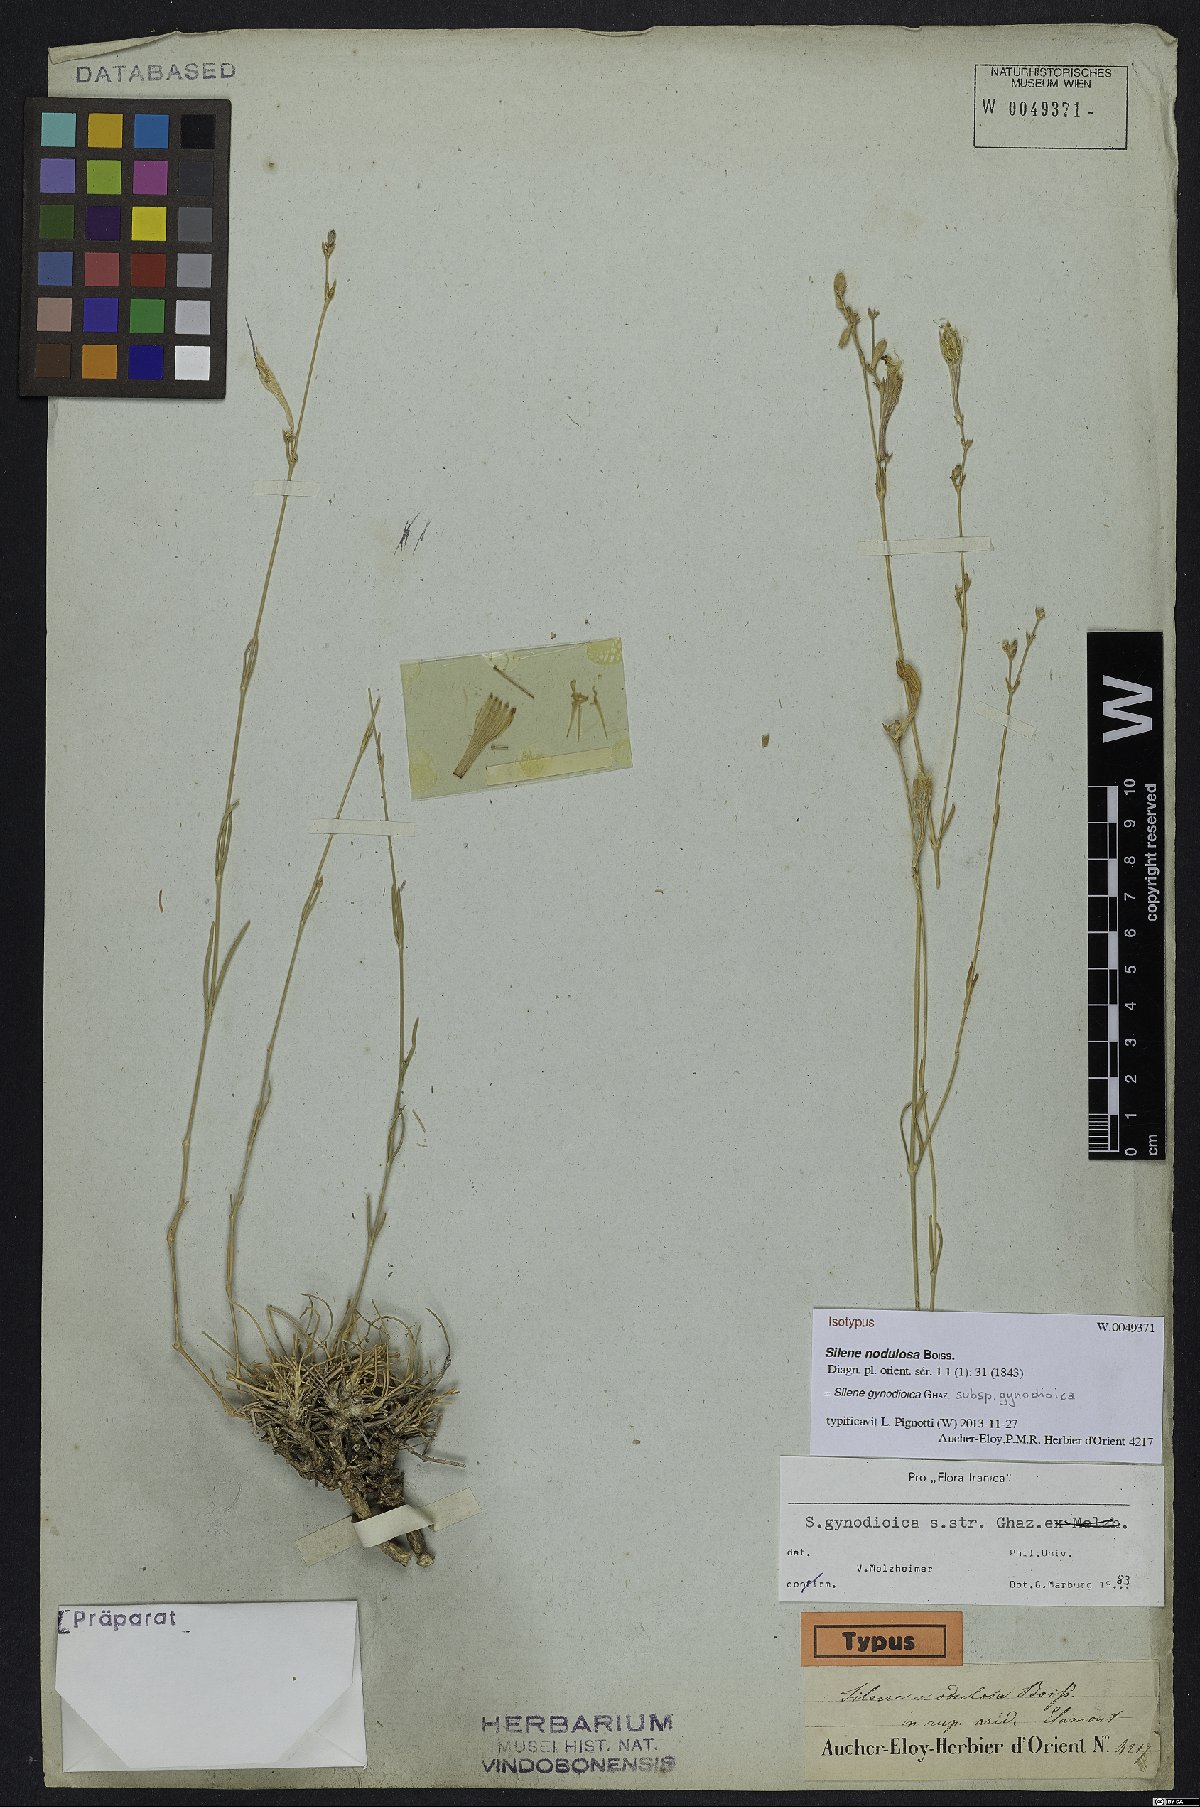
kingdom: Plantae
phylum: Tracheophyta
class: Magnoliopsida
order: Caryophyllales
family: Caryophyllaceae
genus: Silene
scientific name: Silene gynodioica
